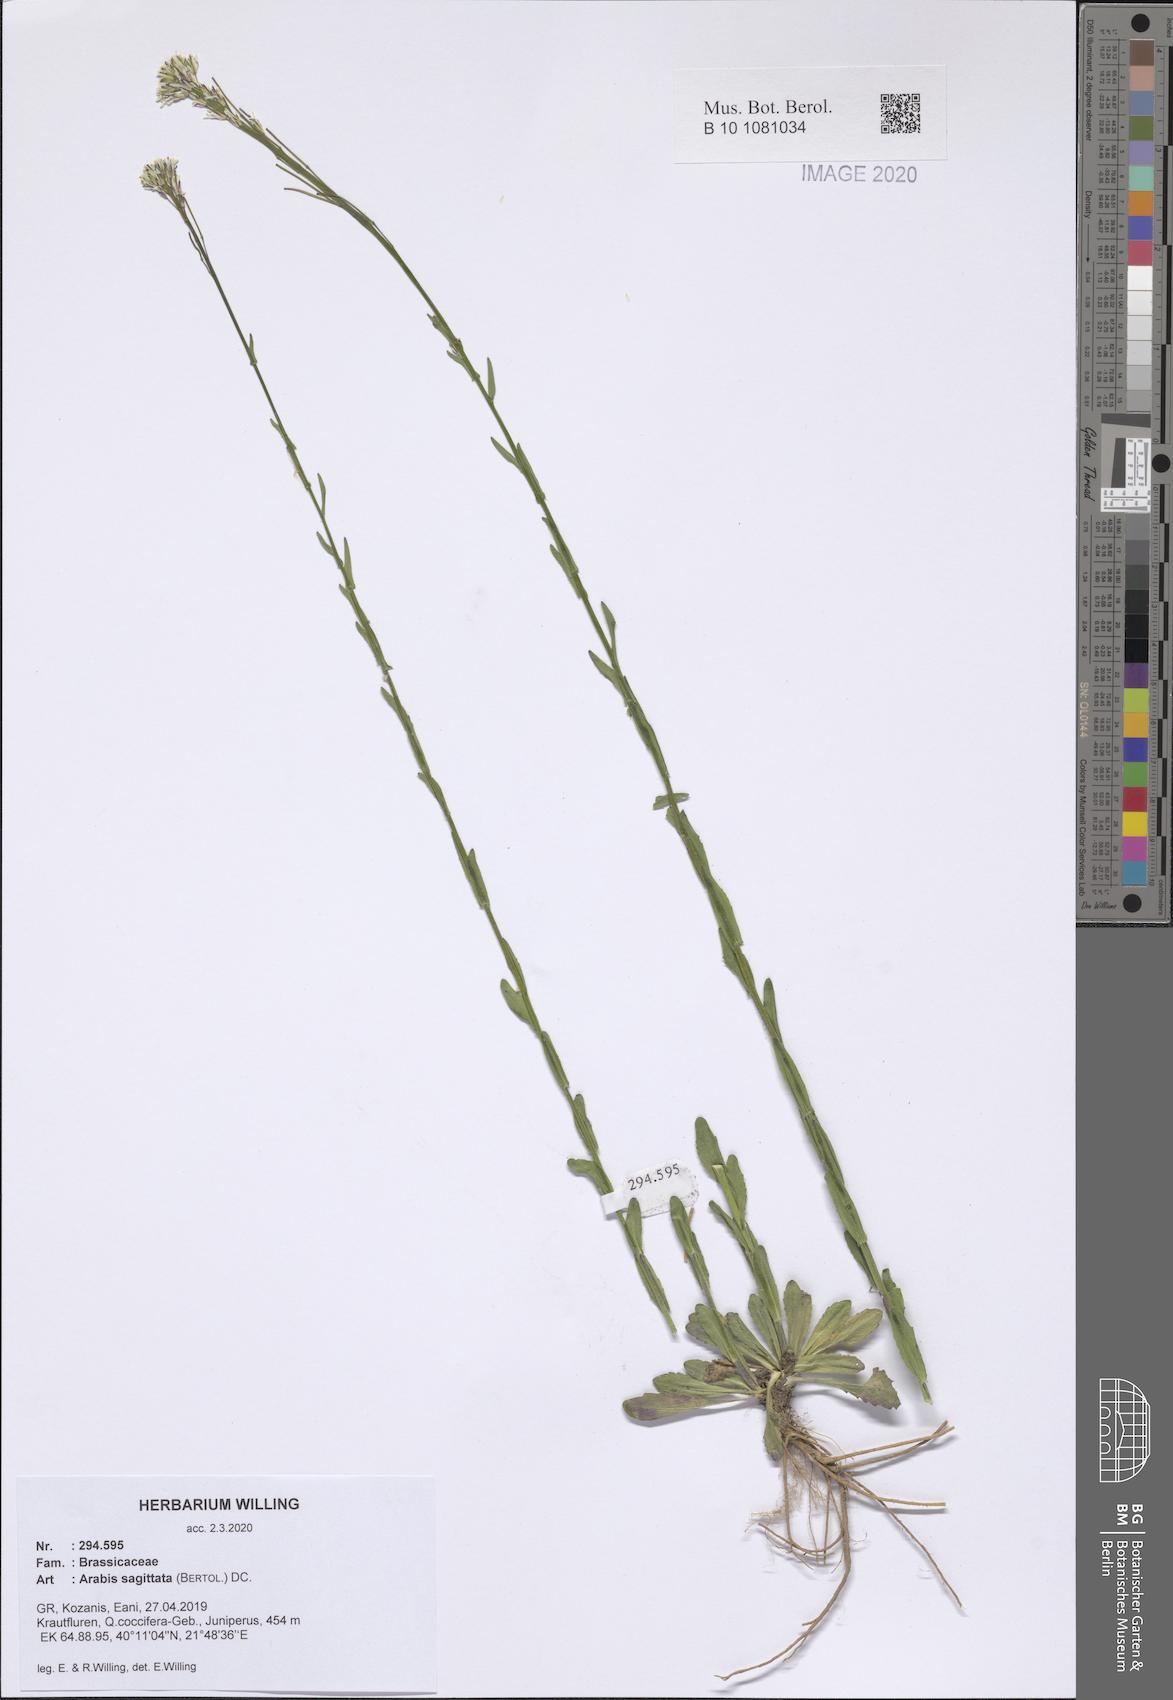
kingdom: Plantae
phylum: Tracheophyta
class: Magnoliopsida
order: Brassicales
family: Brassicaceae
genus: Arabis
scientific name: Arabis sagittata
